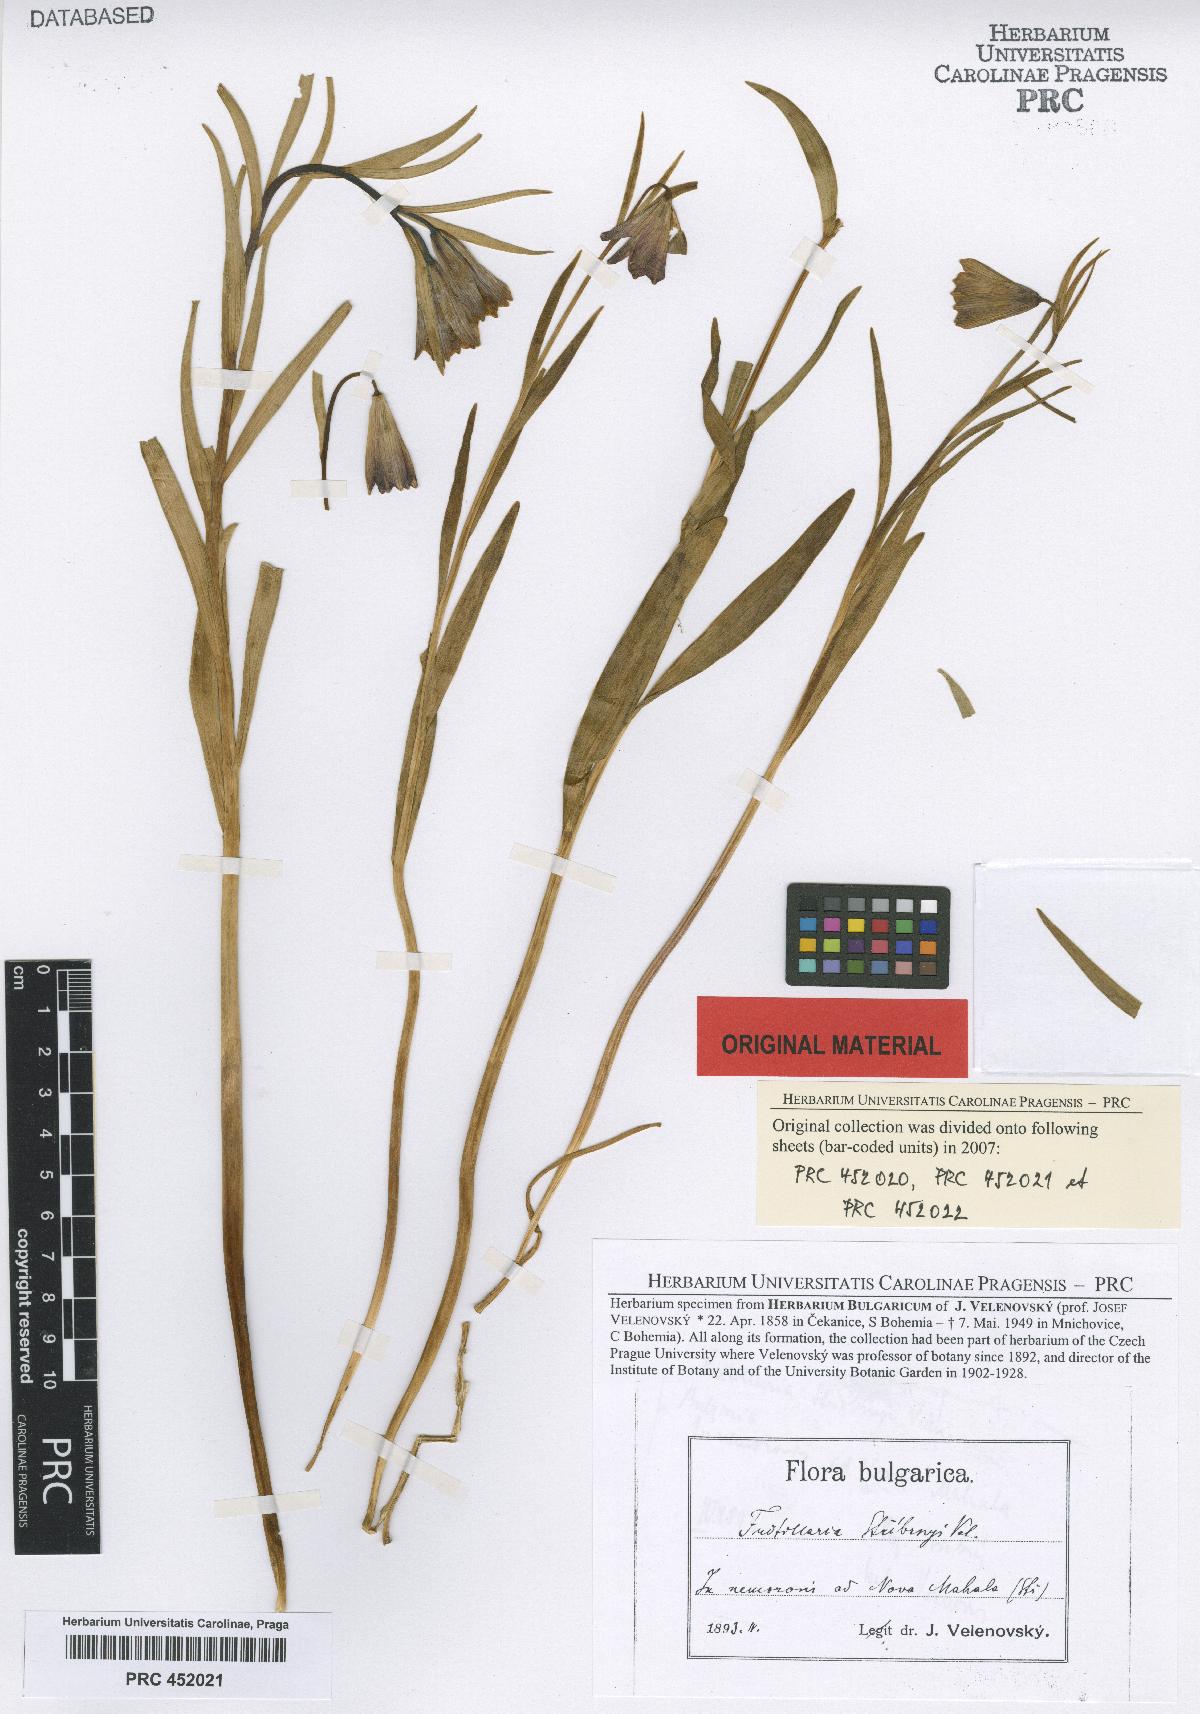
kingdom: Plantae
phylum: Tracheophyta
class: Liliopsida
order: Liliales
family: Liliaceae
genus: Fritillaria
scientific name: Fritillaria stribrnyi
